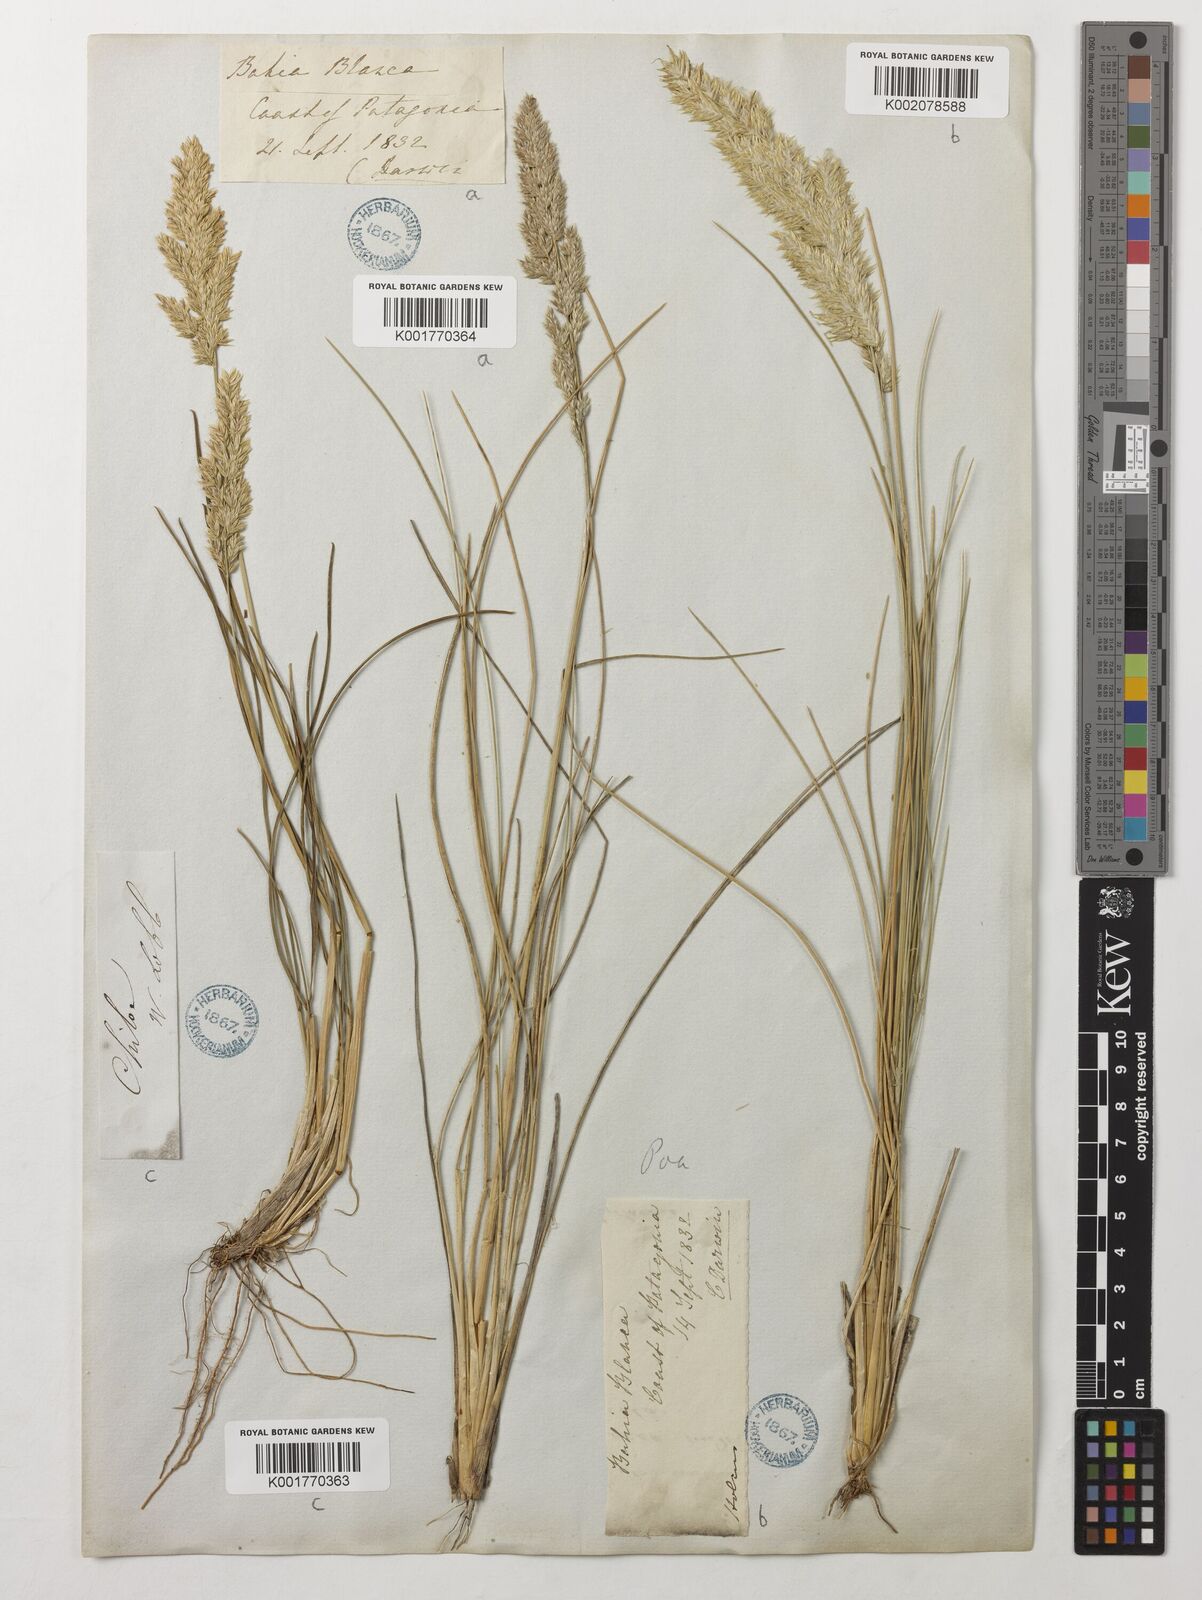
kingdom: Plantae
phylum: Tracheophyta
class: Liliopsida
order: Poales
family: Poaceae
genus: Poa
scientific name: Poa ligularis
